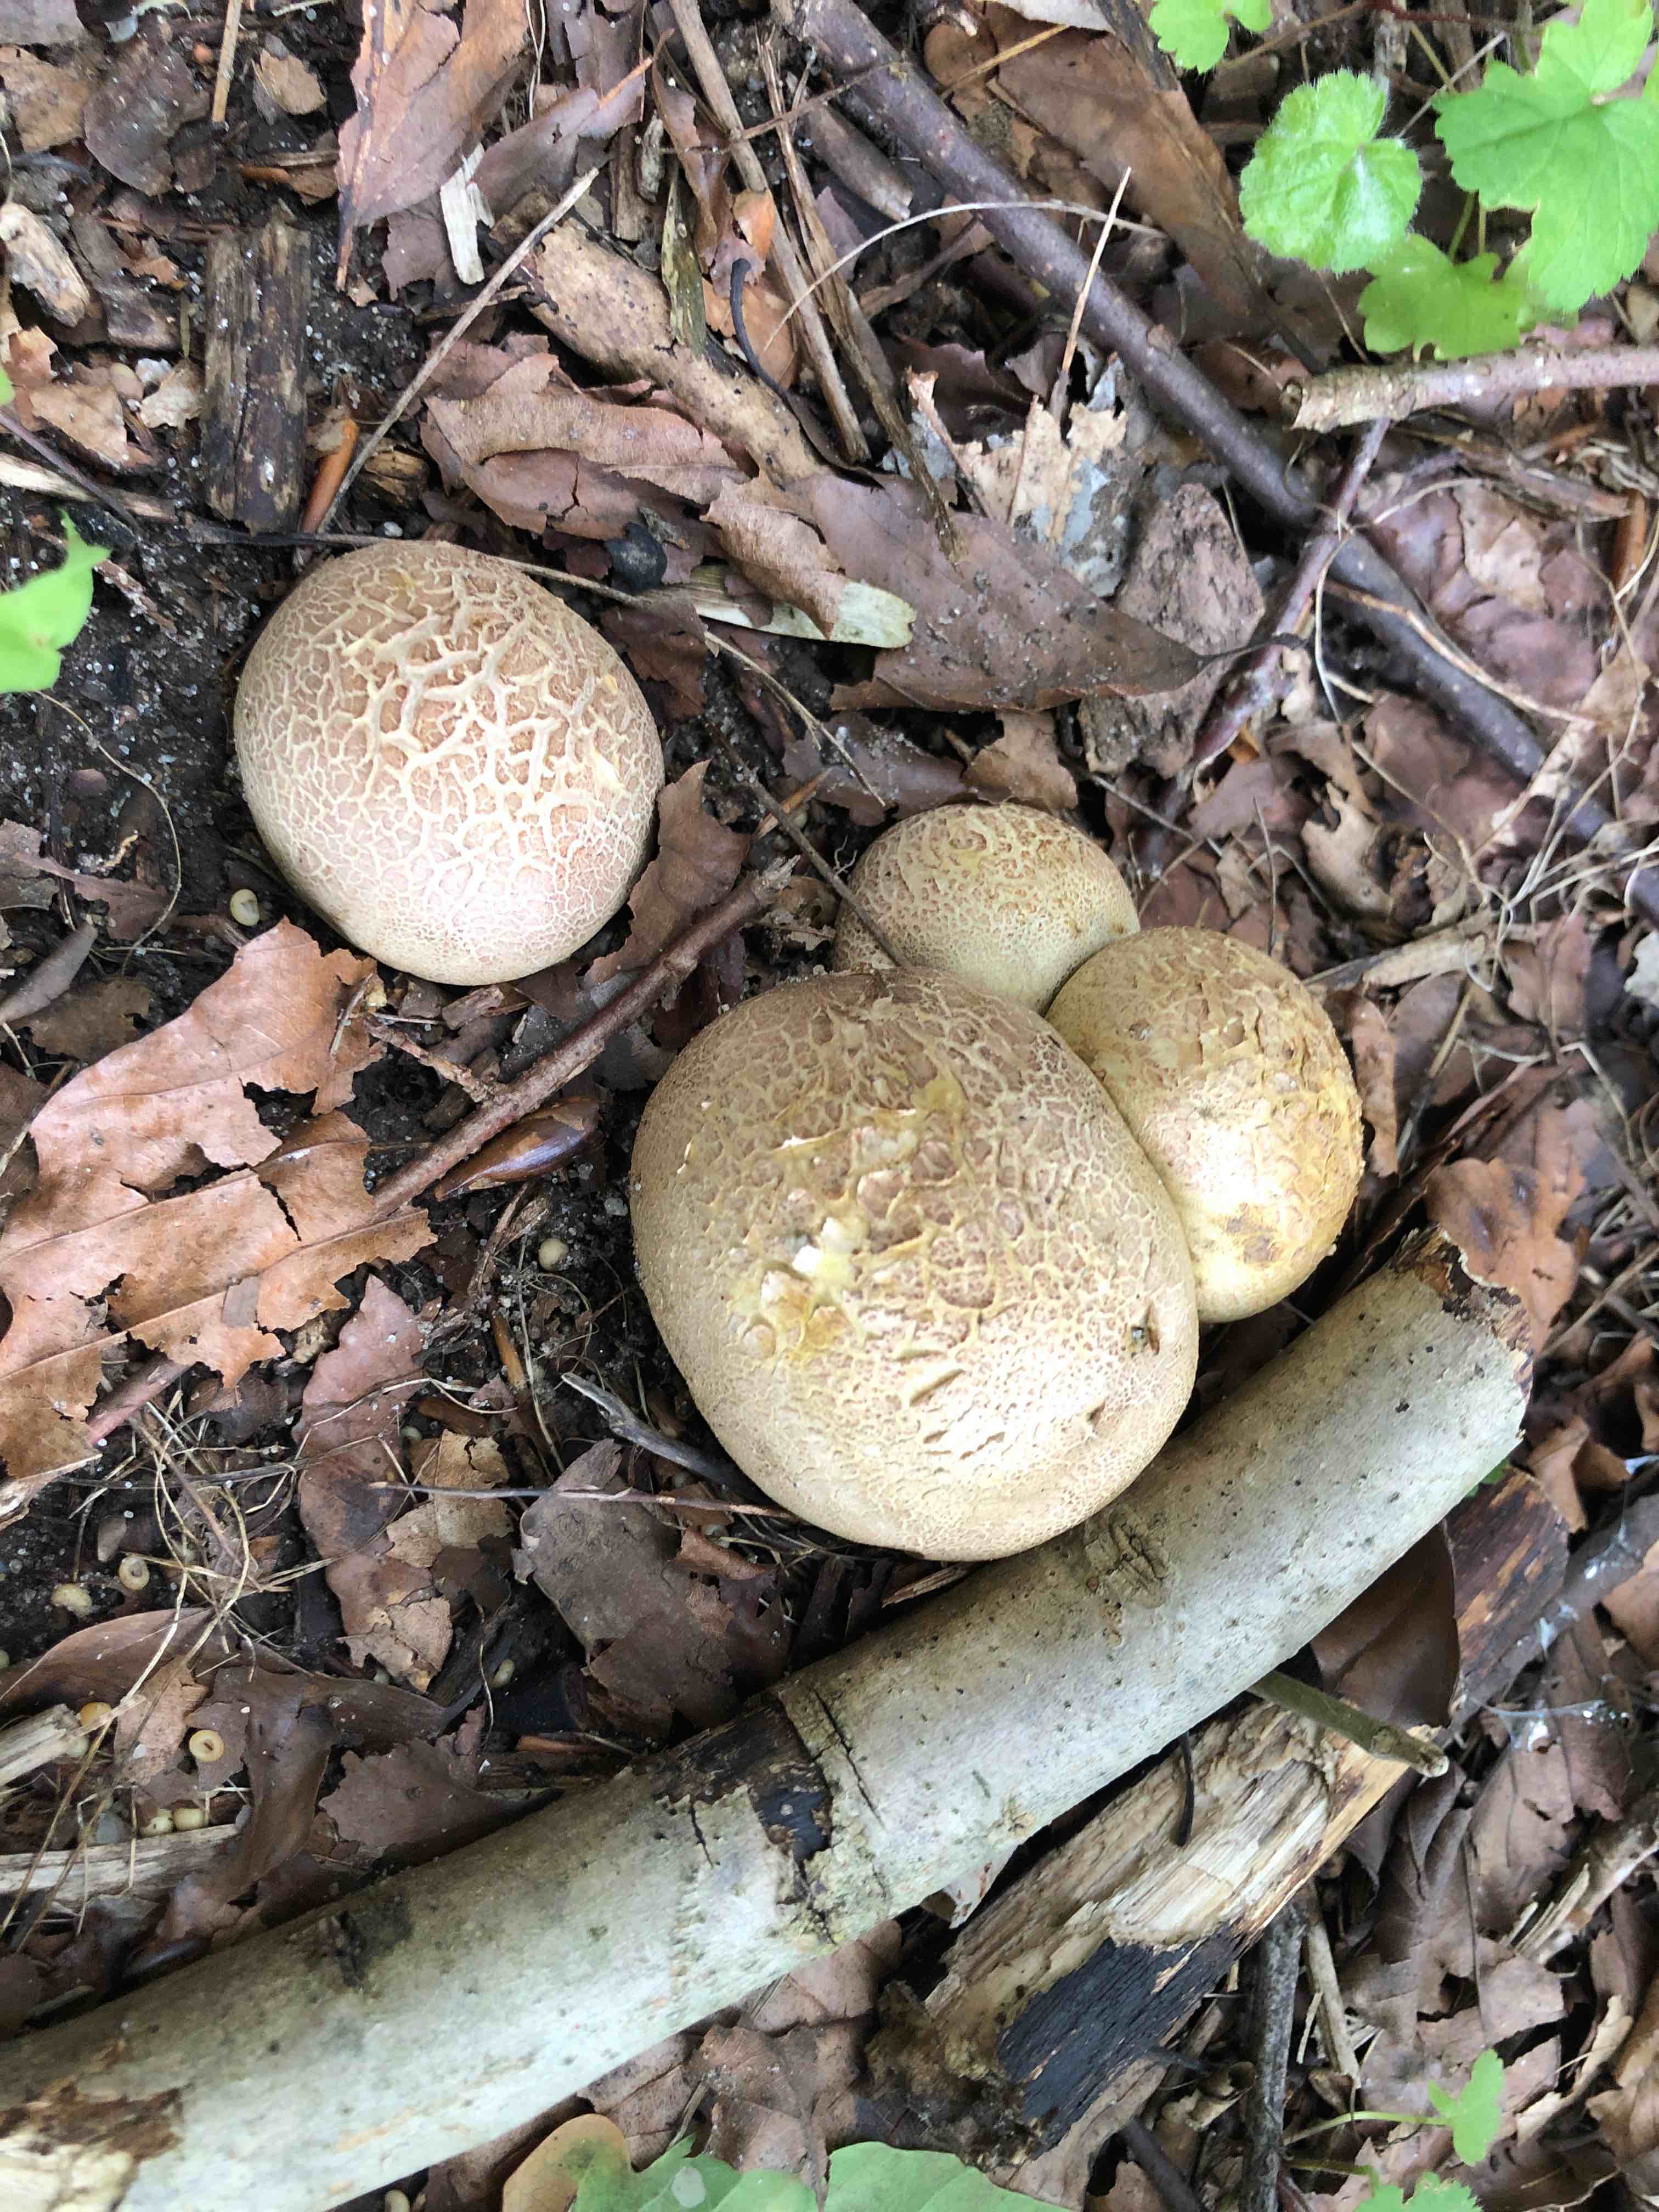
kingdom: Fungi
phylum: Basidiomycota
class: Agaricomycetes
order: Boletales
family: Sclerodermataceae
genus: Scleroderma
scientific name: Scleroderma citrinum
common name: almindelig bruskbold
